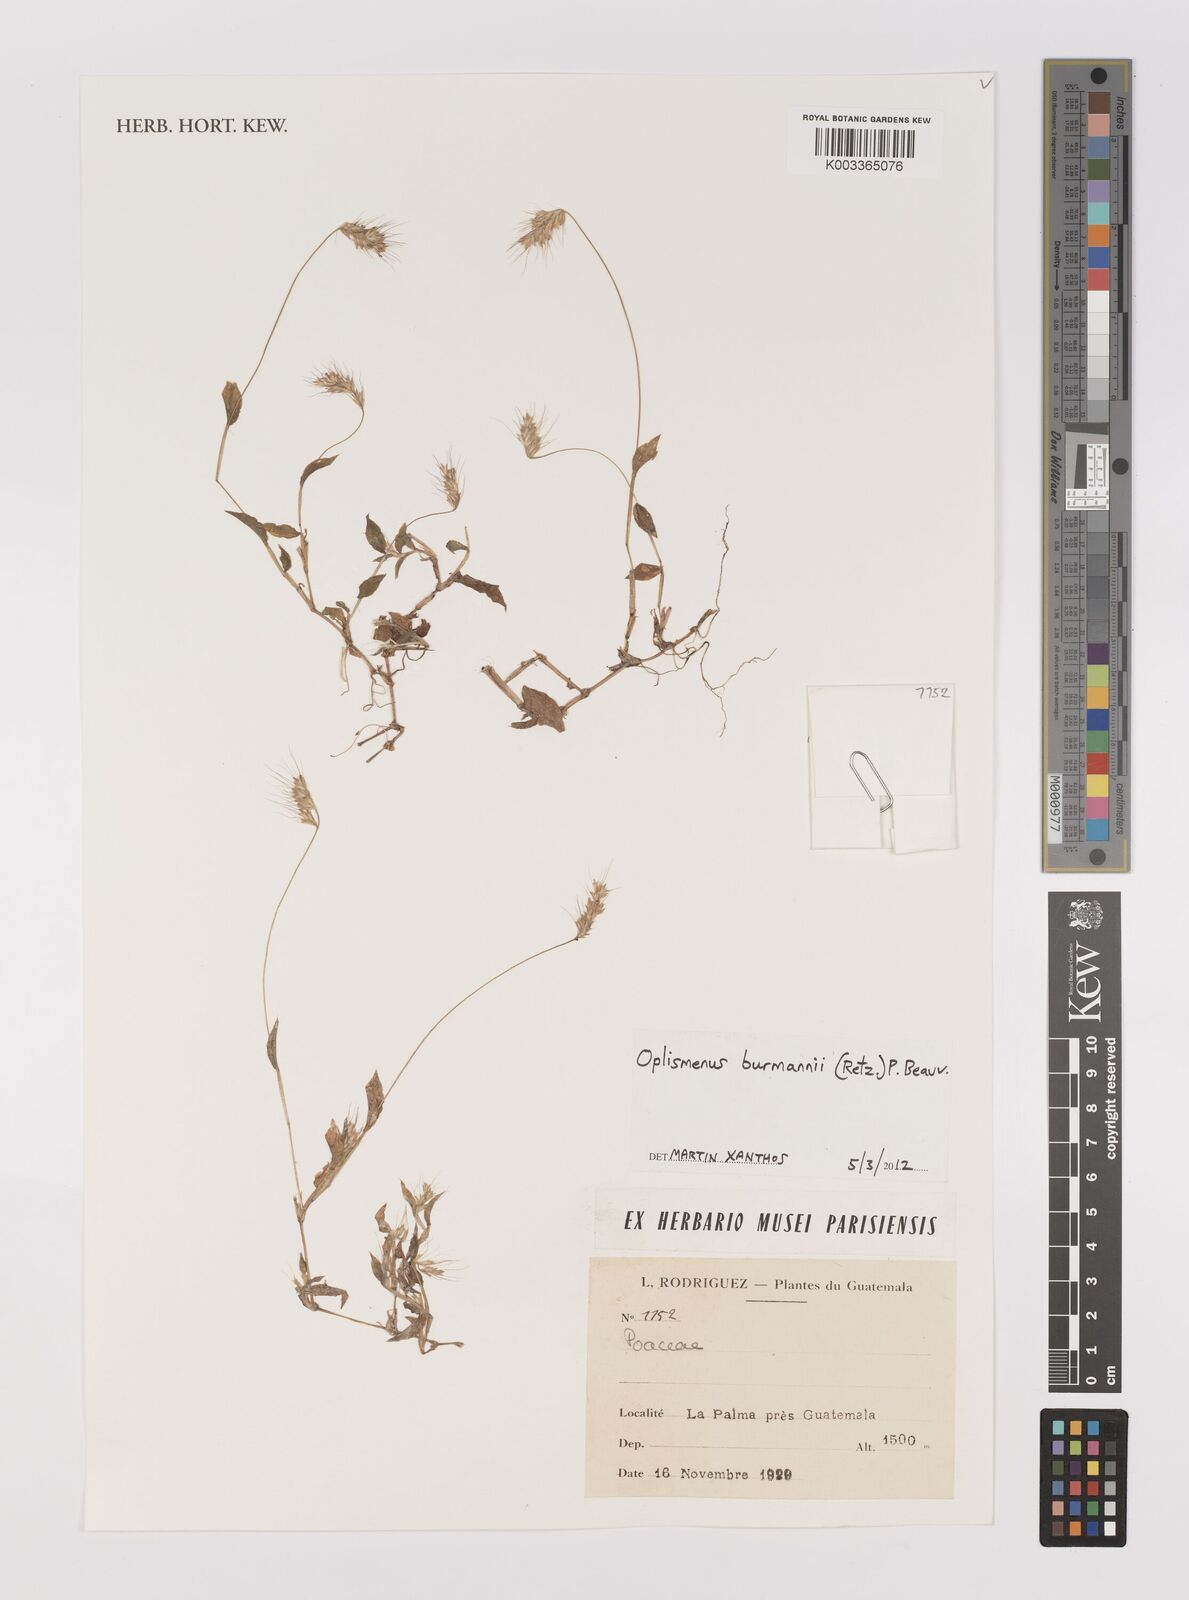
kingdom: Plantae
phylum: Tracheophyta
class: Liliopsida
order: Poales
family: Poaceae
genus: Oplismenus
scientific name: Oplismenus burmanni
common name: Burmann's basketgrass
